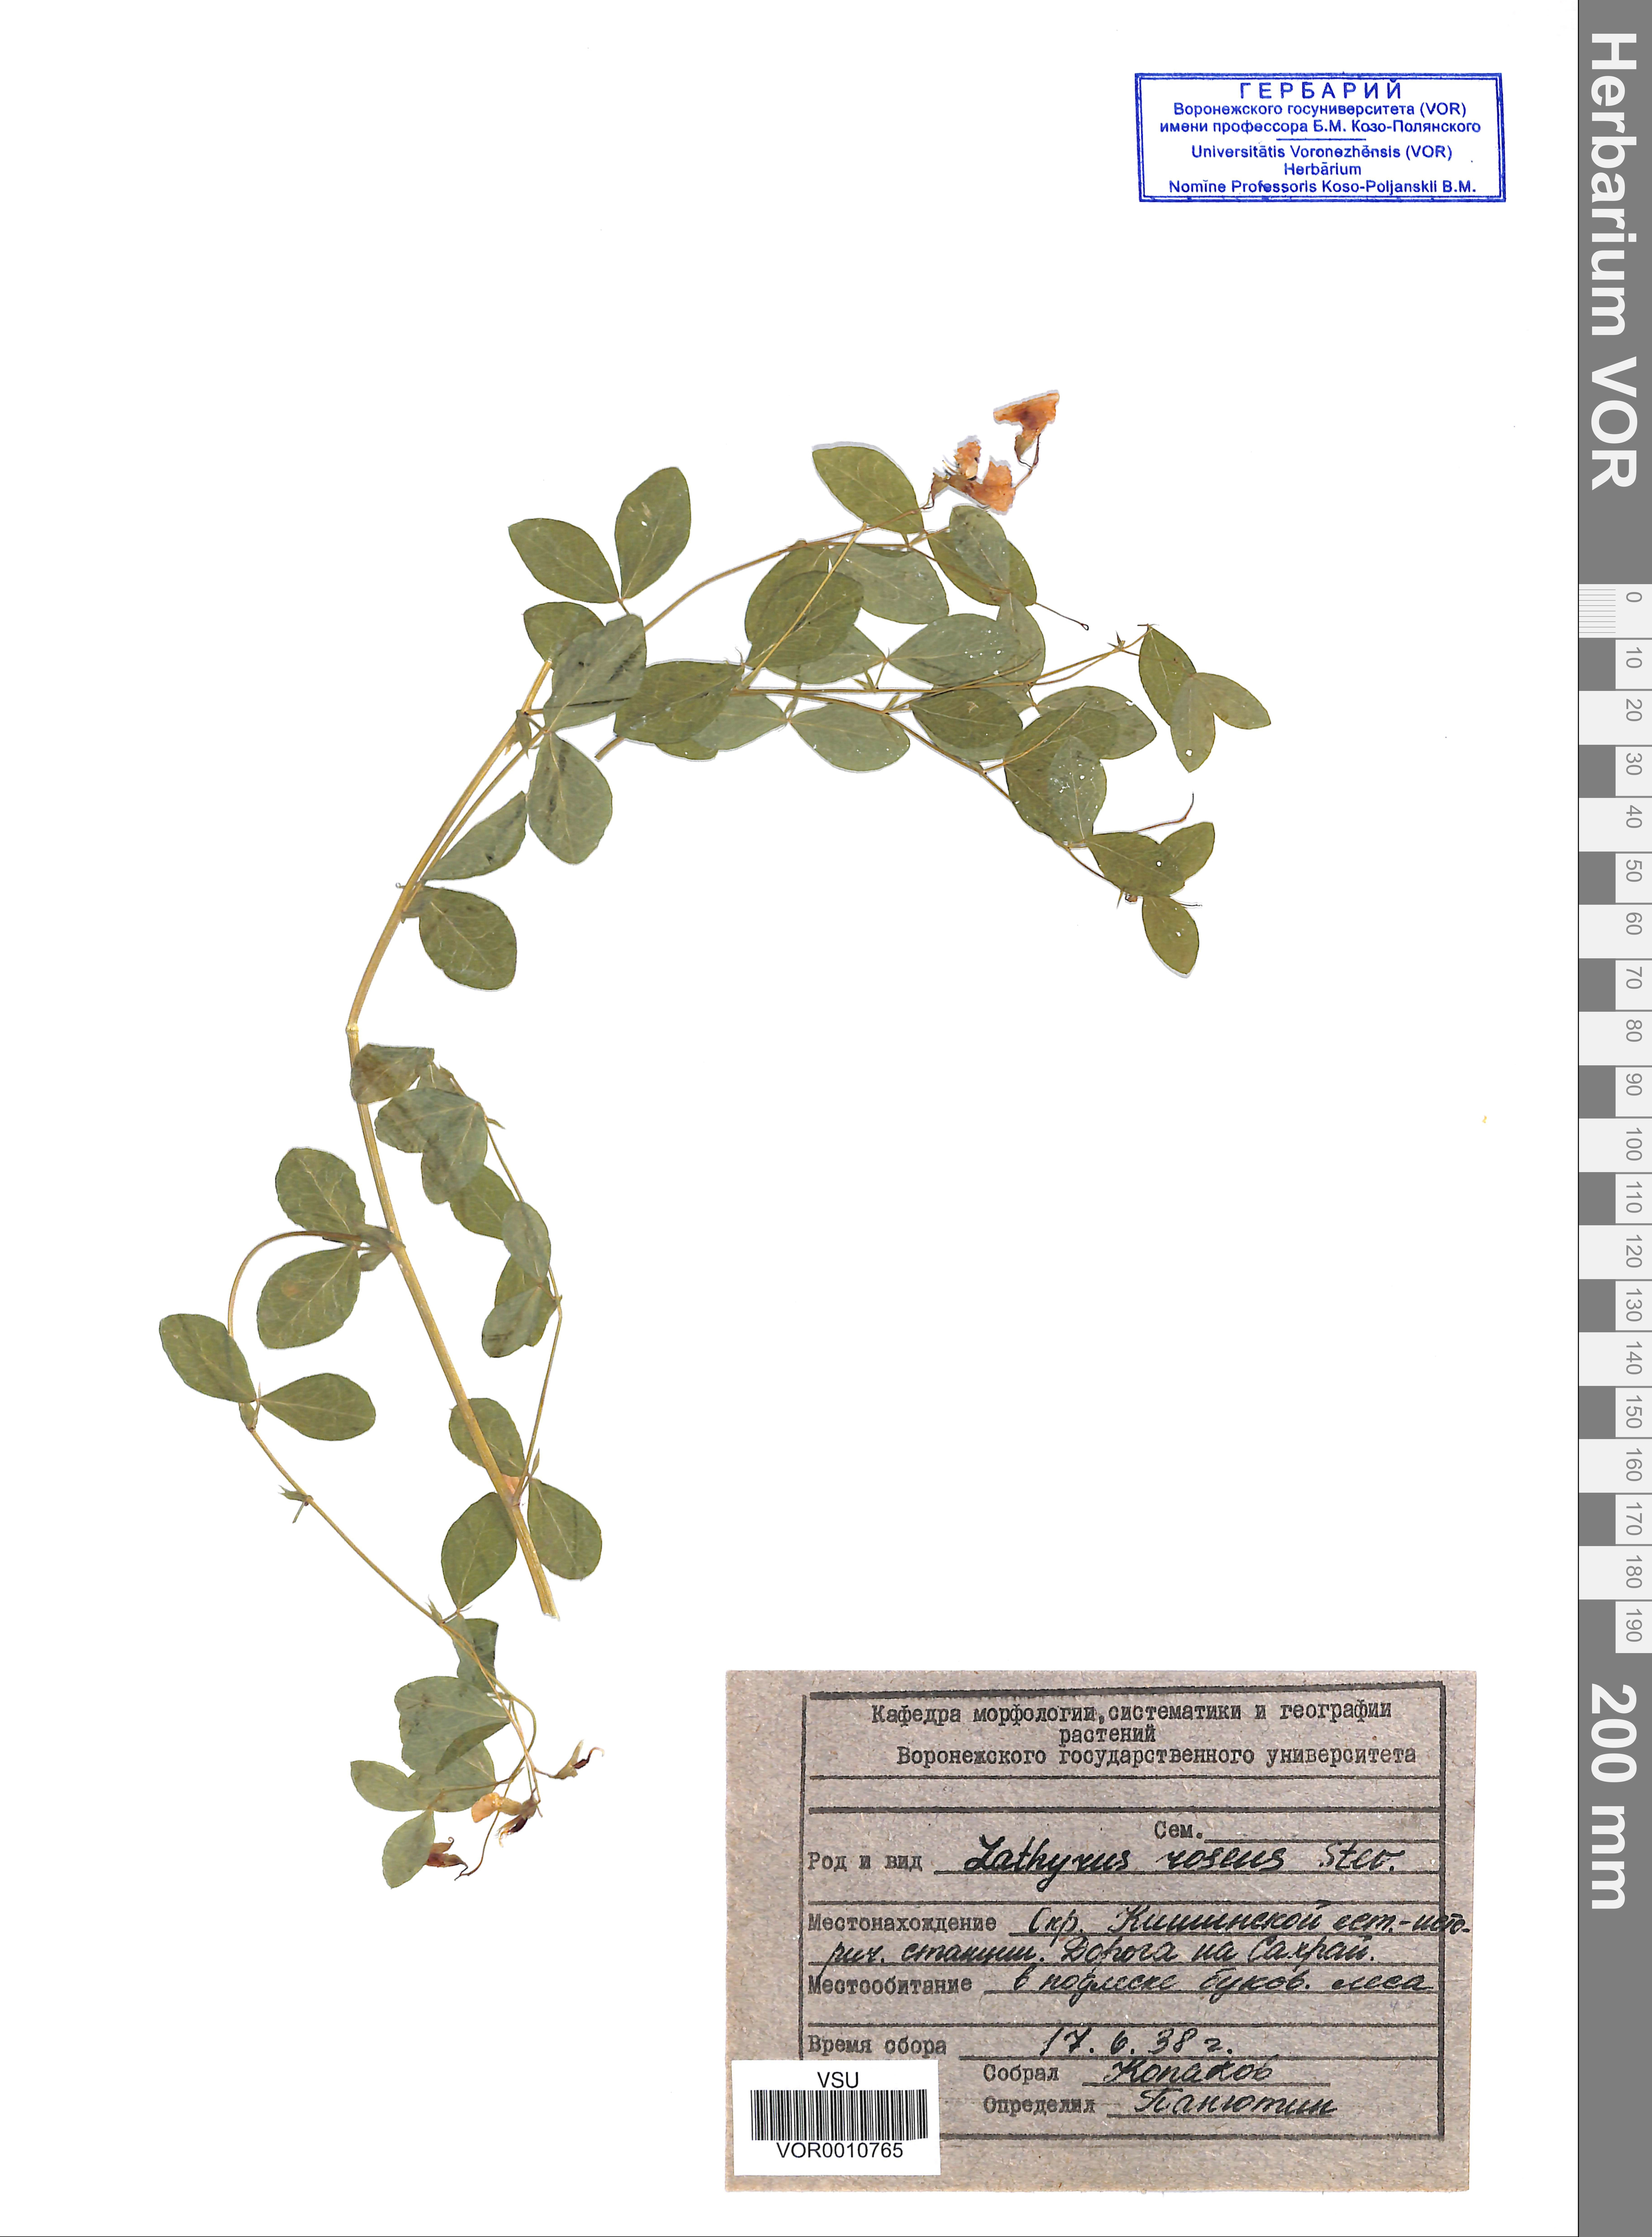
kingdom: Plantae
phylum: Tracheophyta
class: Magnoliopsida
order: Fabales
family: Fabaceae
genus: Lathyrus
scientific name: Lathyrus roseus
